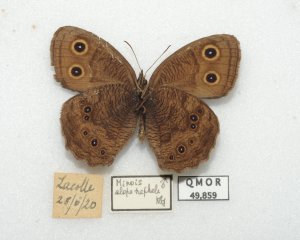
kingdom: Animalia
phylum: Arthropoda
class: Insecta
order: Lepidoptera
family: Nymphalidae
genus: Cercyonis
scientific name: Cercyonis pegala
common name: Common Wood-Nymph
